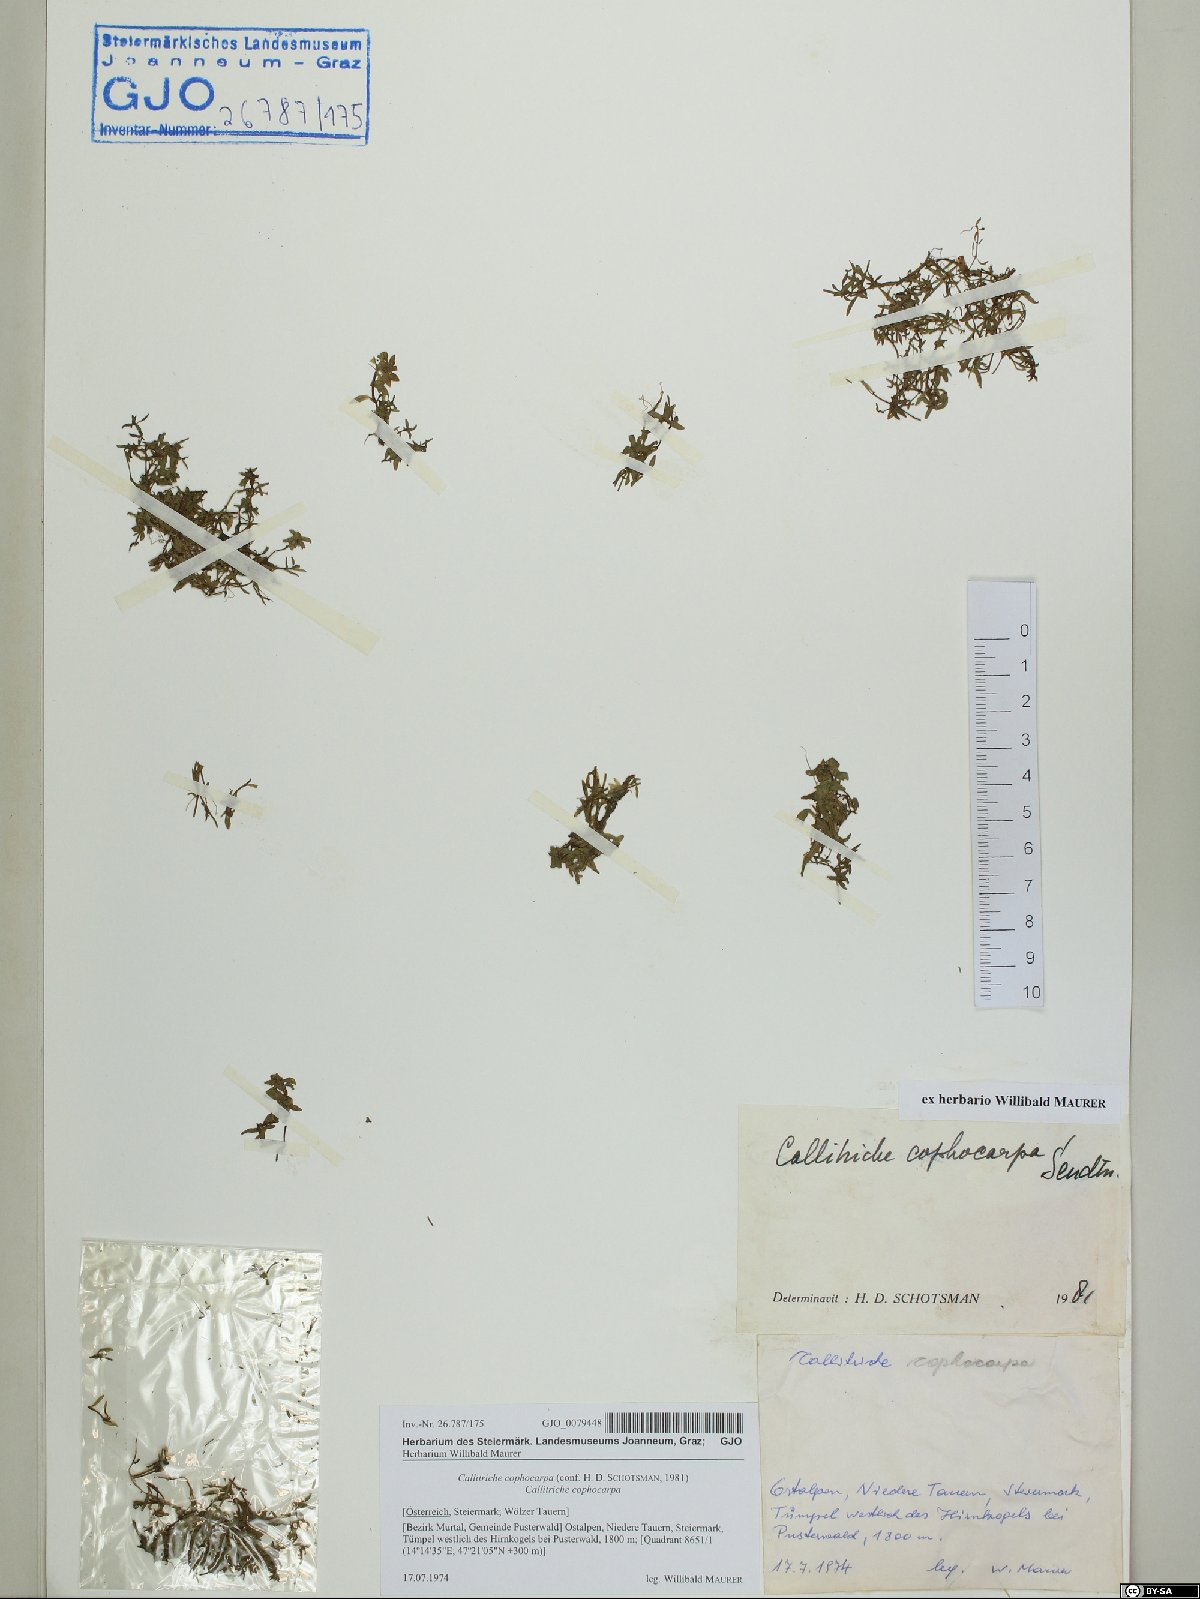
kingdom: Plantae
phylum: Tracheophyta
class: Magnoliopsida
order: Lamiales
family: Plantaginaceae
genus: Callitriche
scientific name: Callitriche cophocarpa
